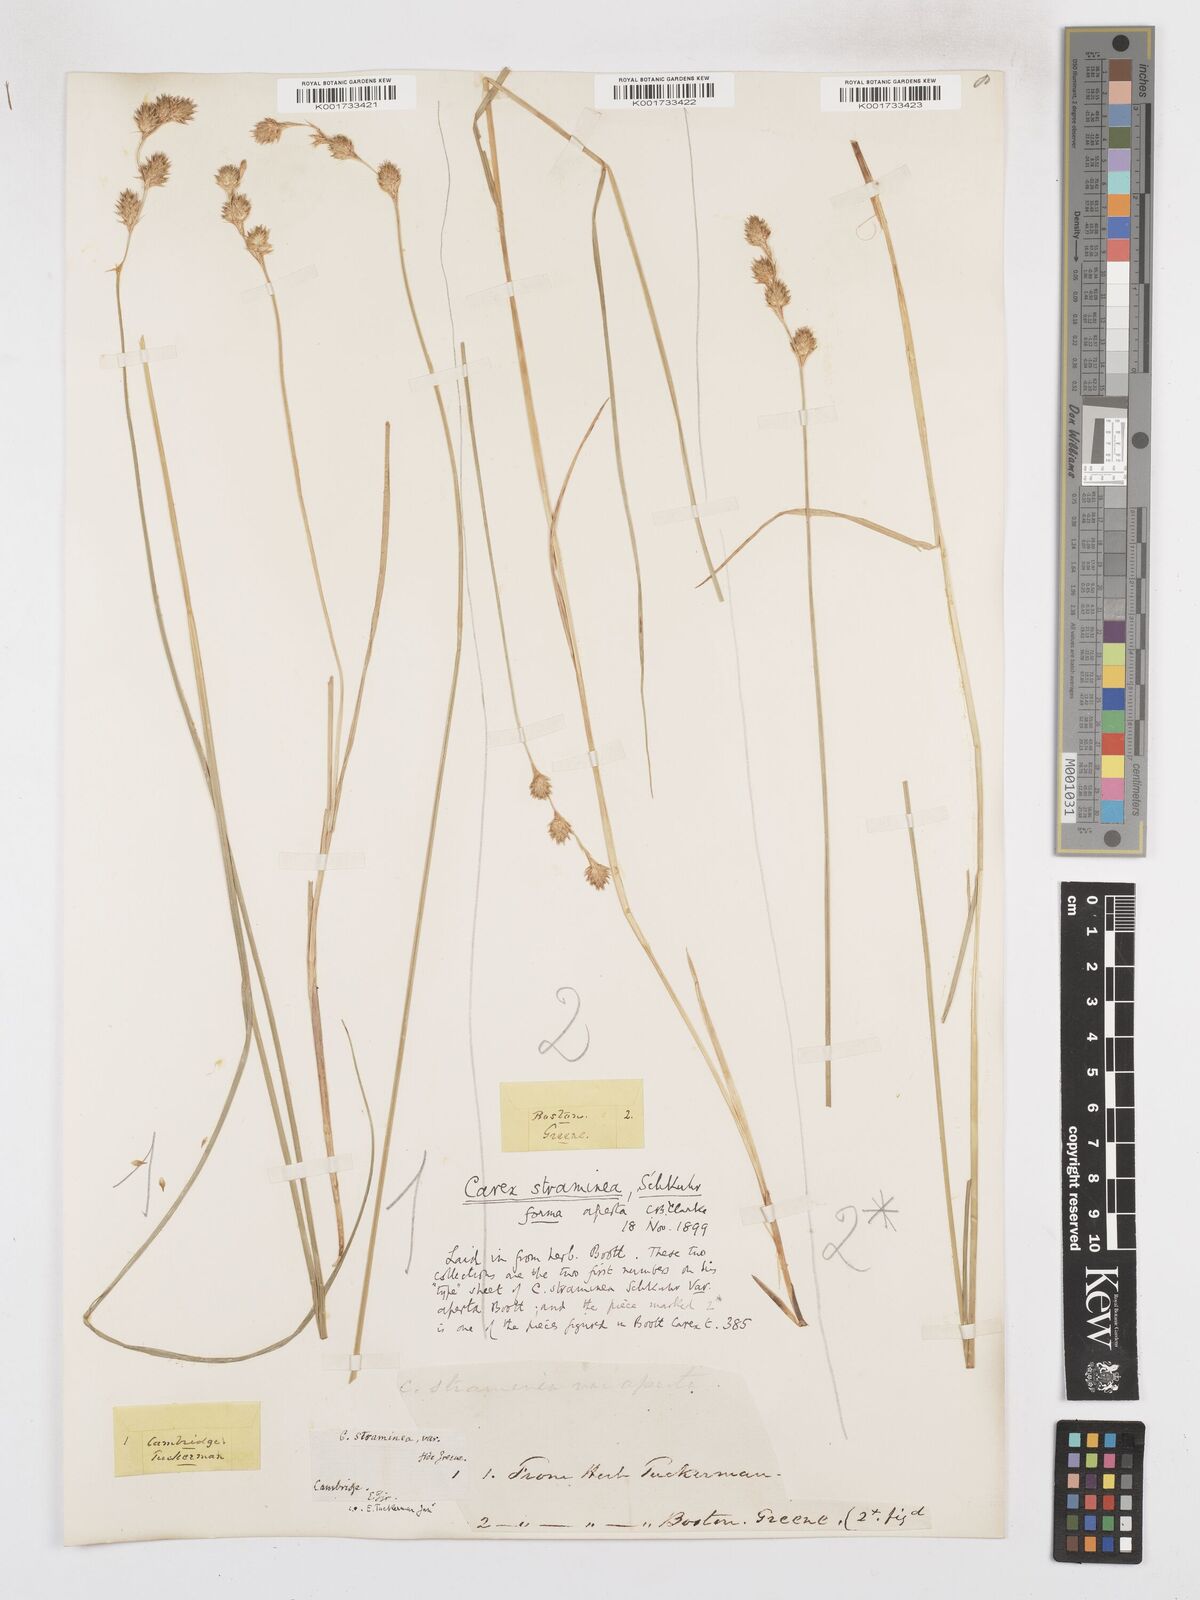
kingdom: Plantae
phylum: Tracheophyta
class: Liliopsida
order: Poales
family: Cyperaceae
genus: Carex
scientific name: Carex straminea
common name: Eastern straw sedge
